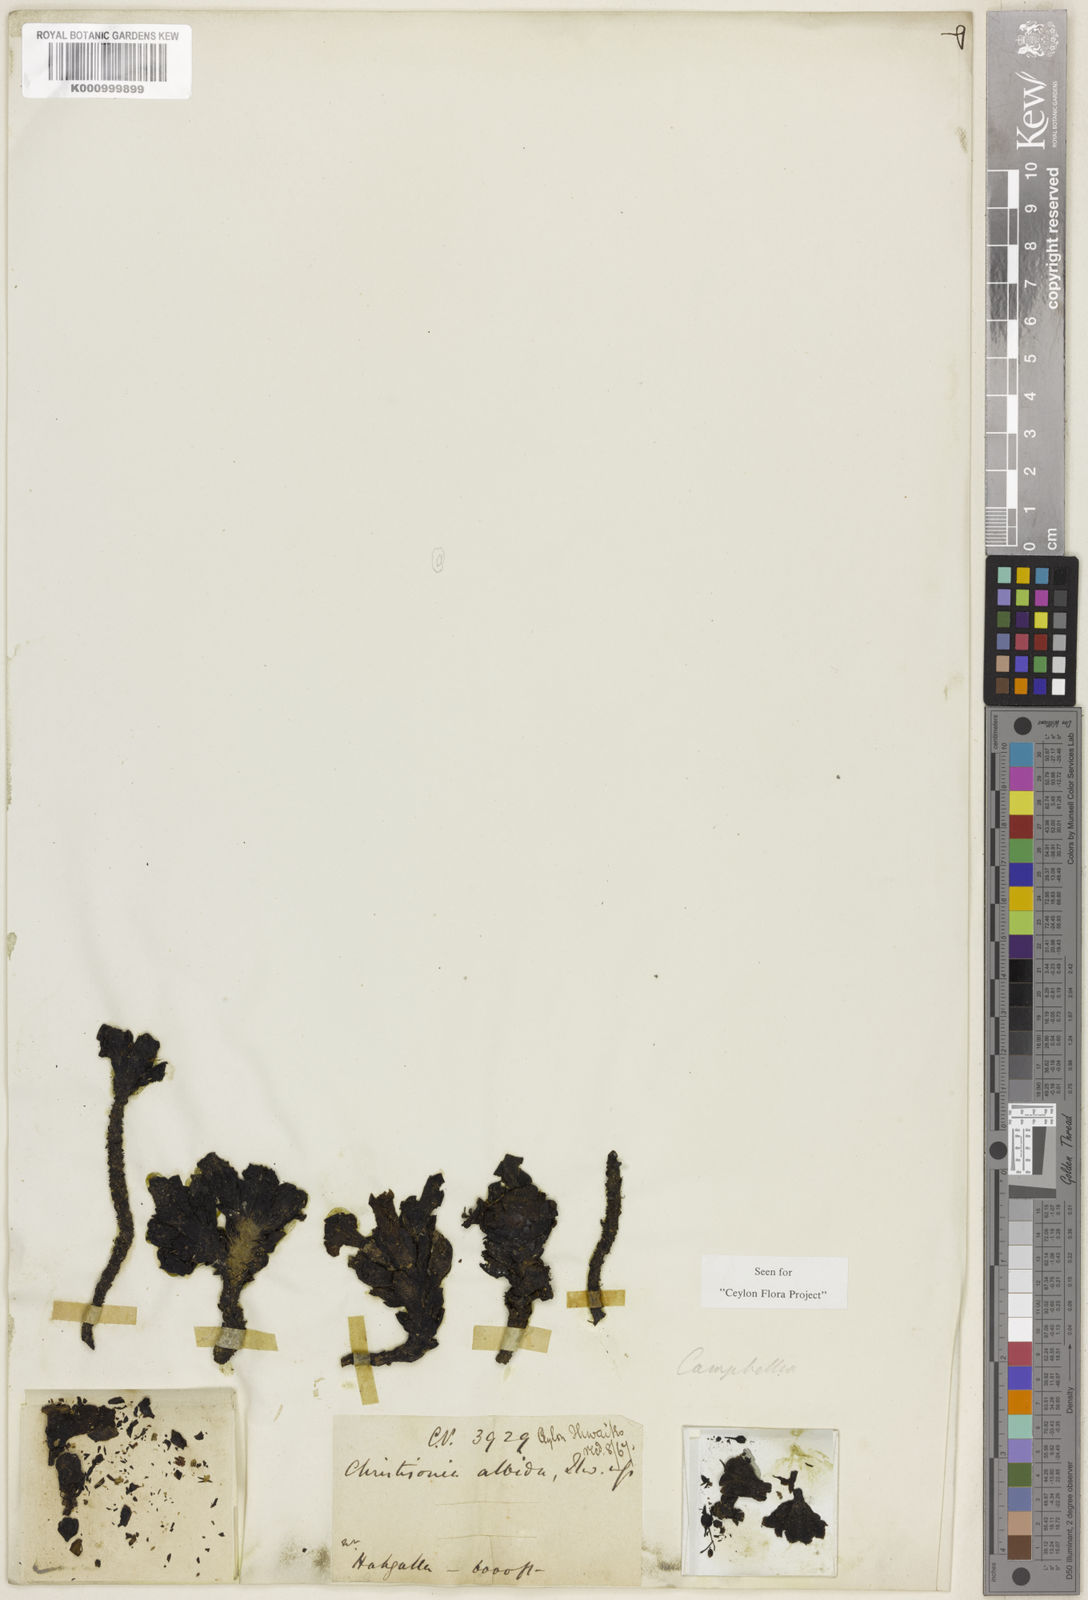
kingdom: Plantae
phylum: Tracheophyta
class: Magnoliopsida
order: Lamiales
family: Orobanchaceae
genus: Christisonia
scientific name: Christisonia albida
